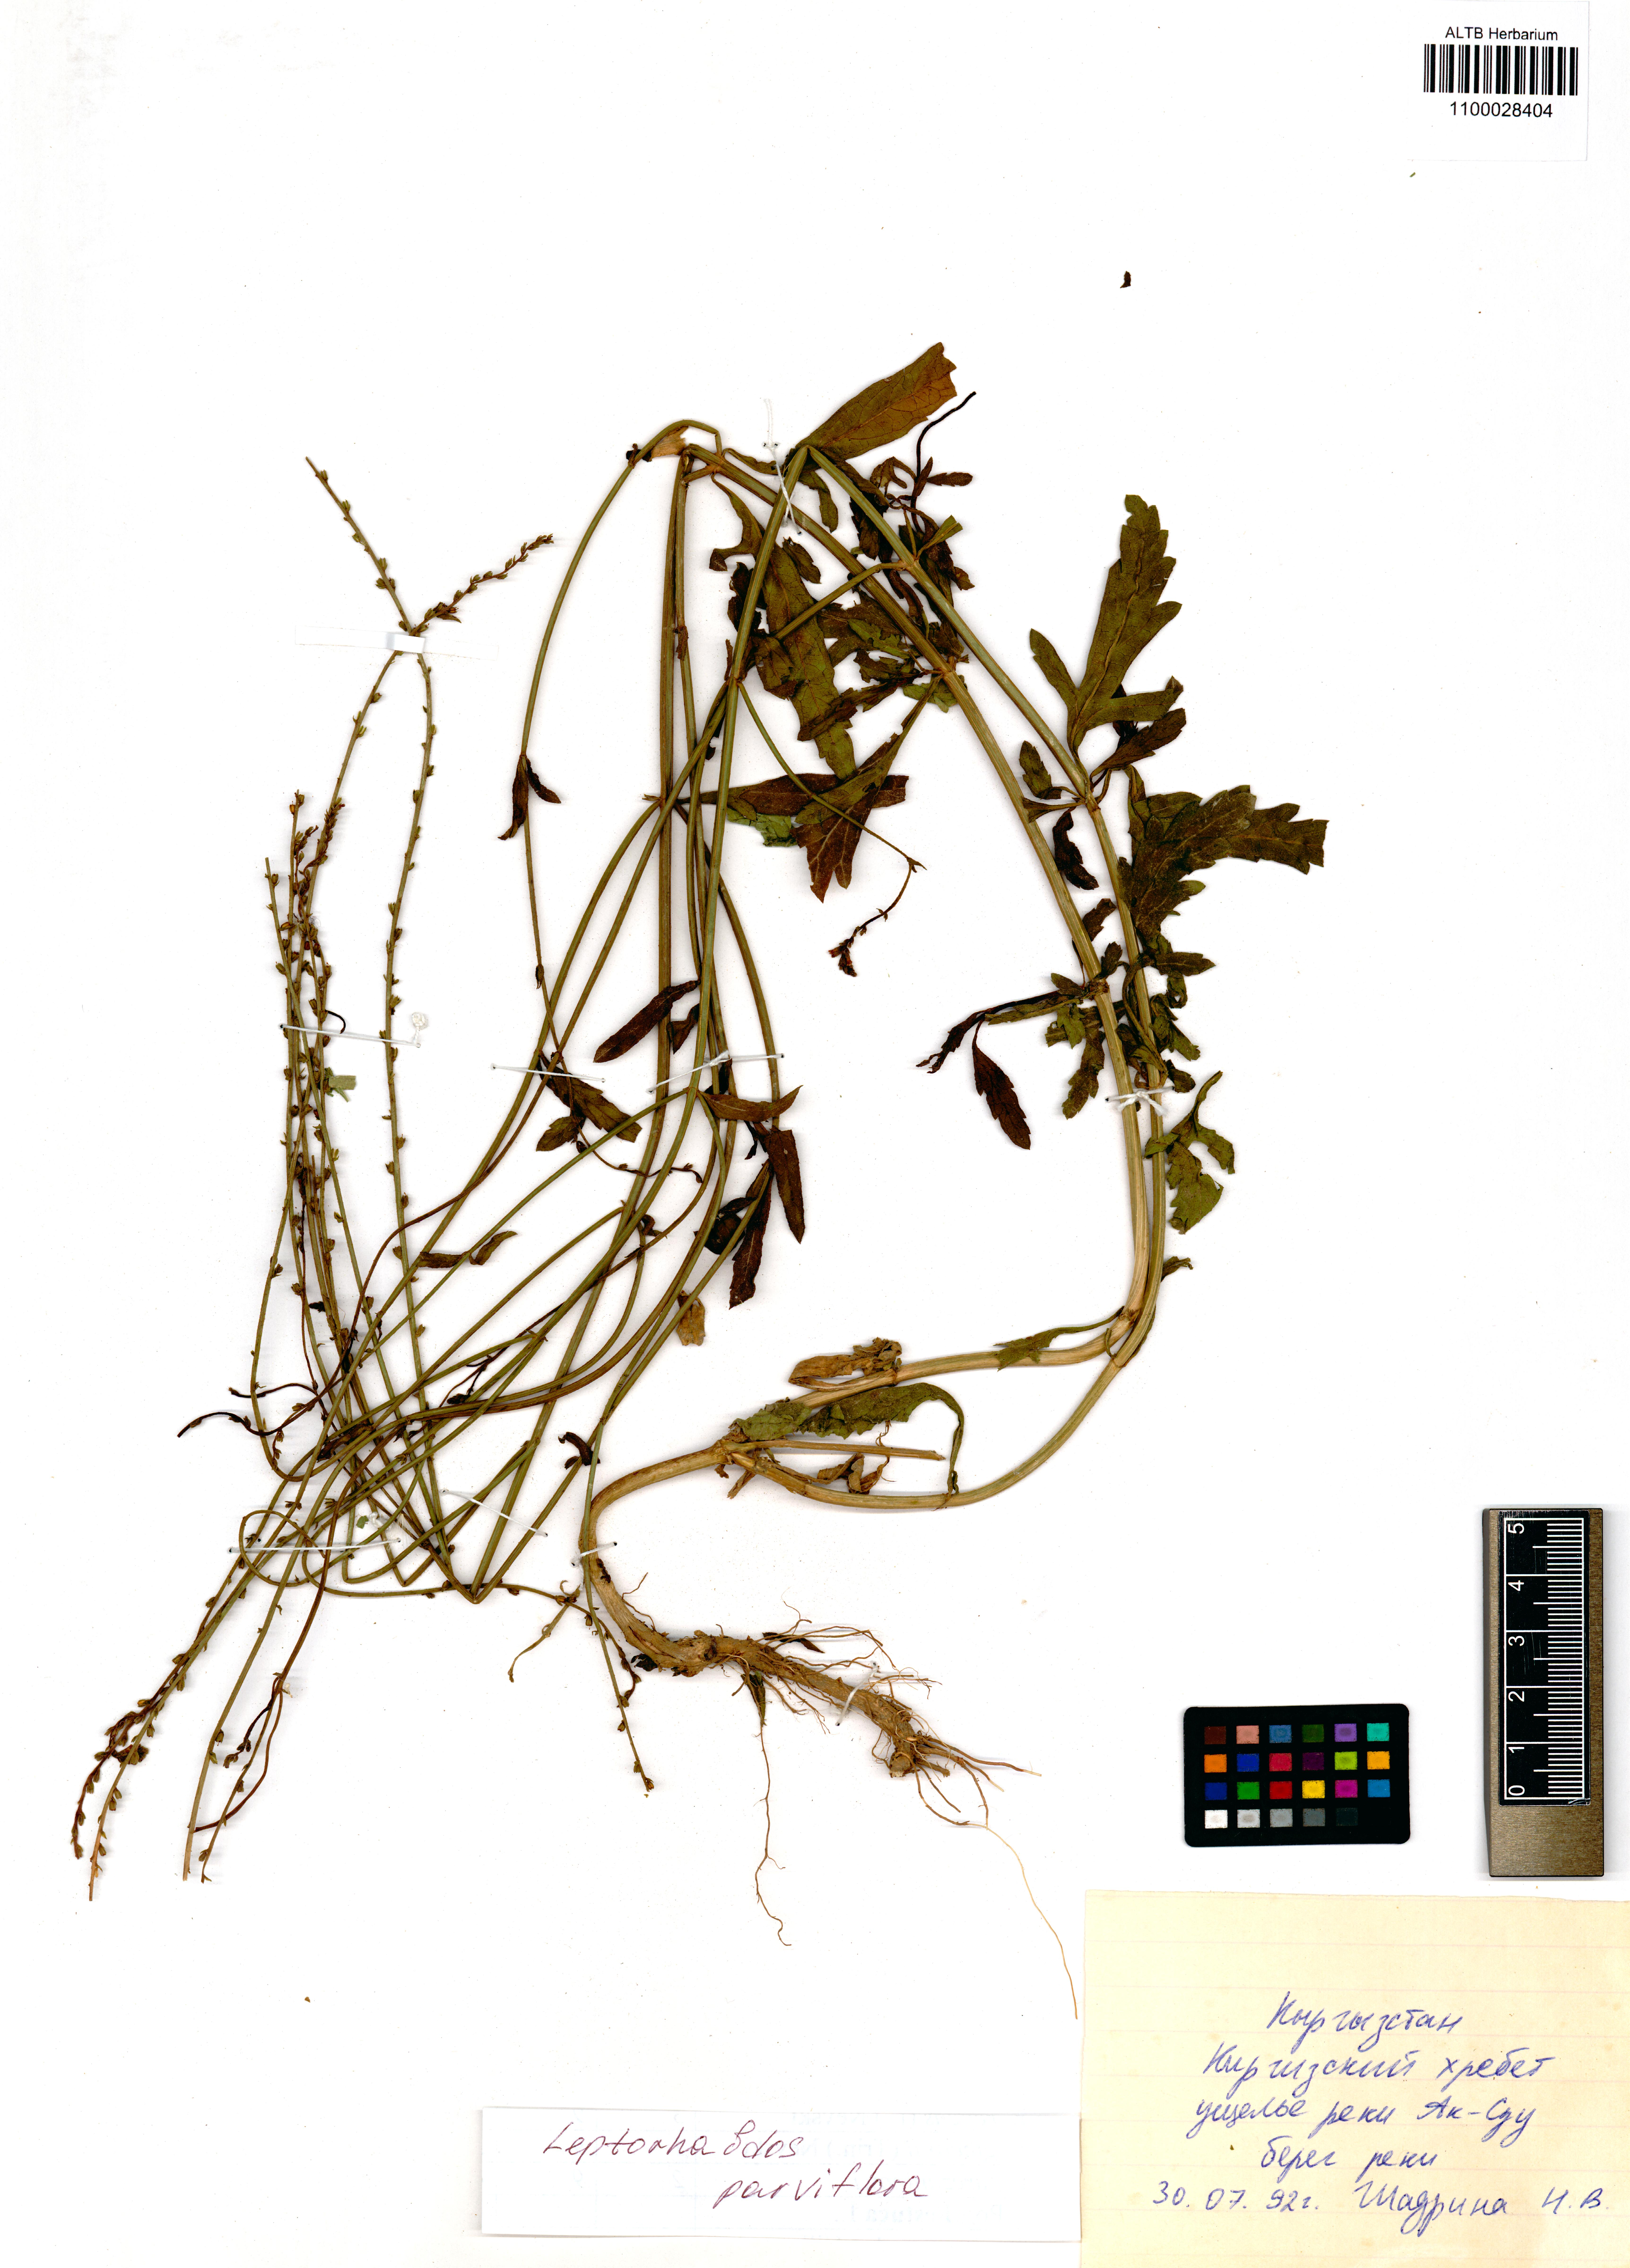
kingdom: Plantae
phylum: Tracheophyta
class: Magnoliopsida
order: Lamiales
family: Orobanchaceae
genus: Leptorhabdos
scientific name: Leptorhabdos parviflora
